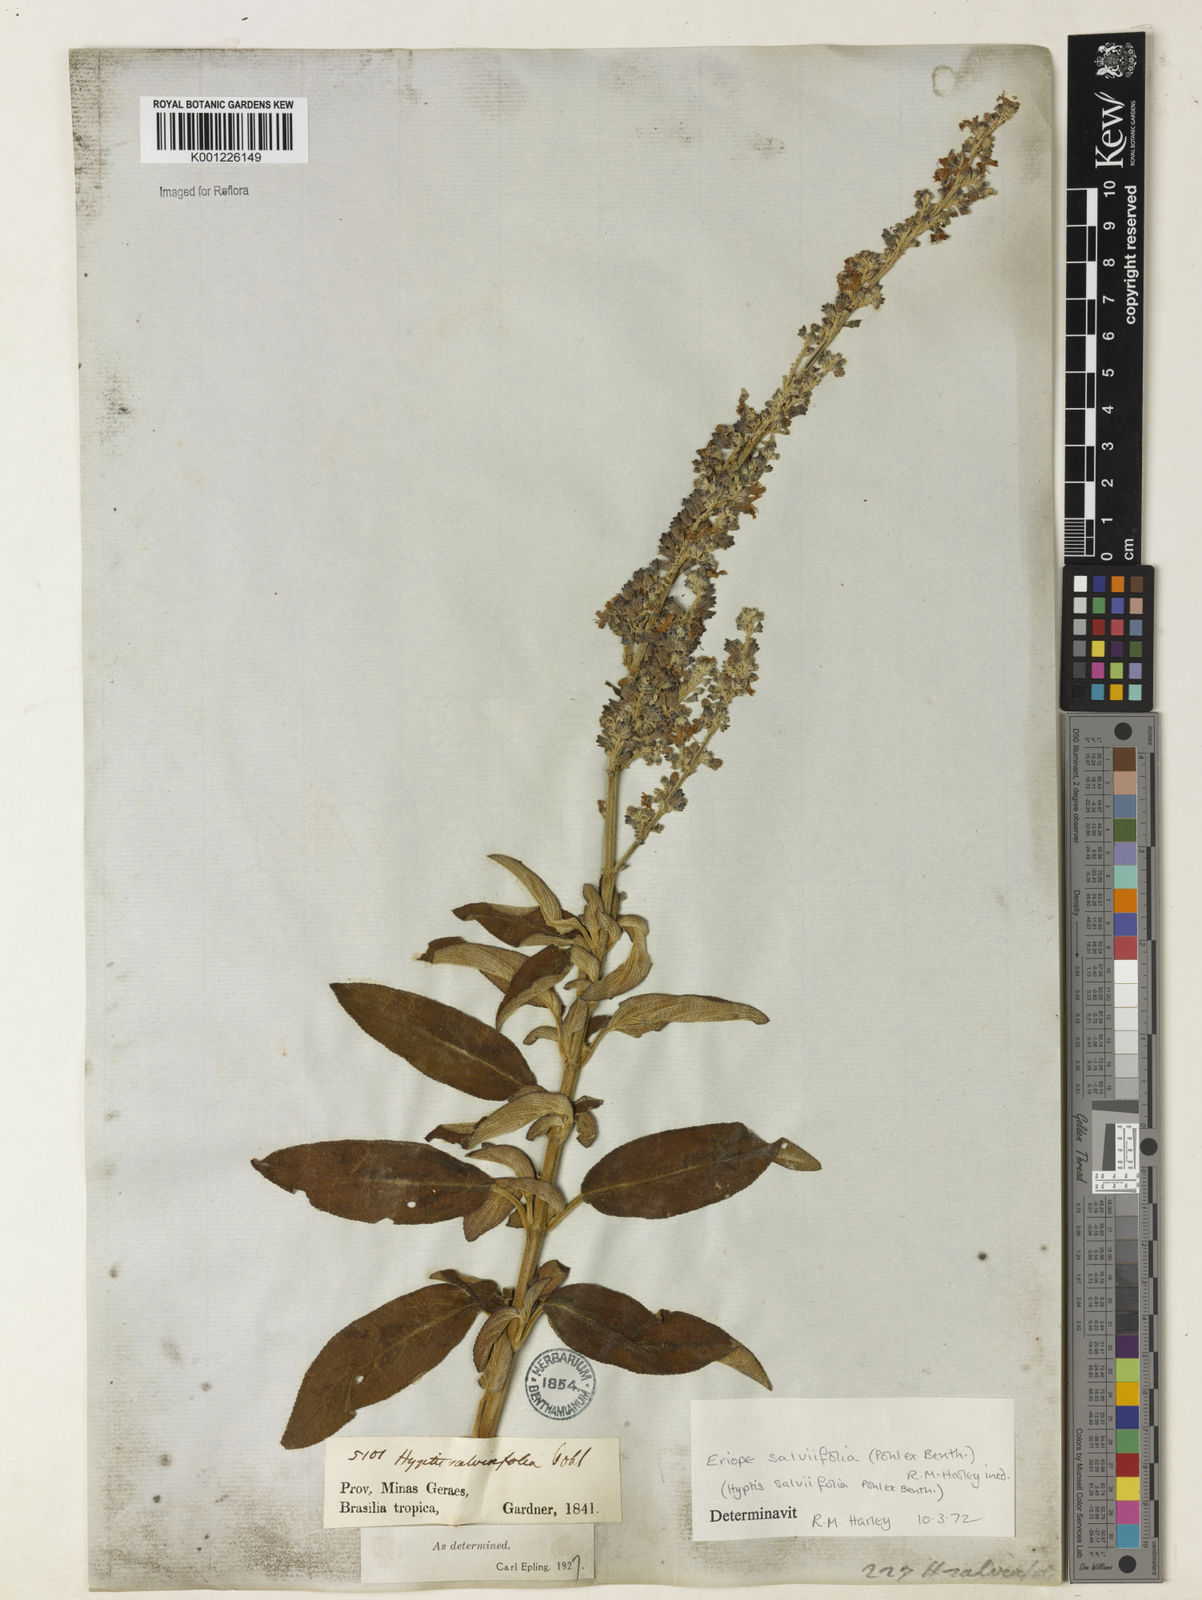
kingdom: Plantae
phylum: Tracheophyta
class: Magnoliopsida
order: Lamiales
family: Lamiaceae
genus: Eriope
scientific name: Eriope salviifolia
